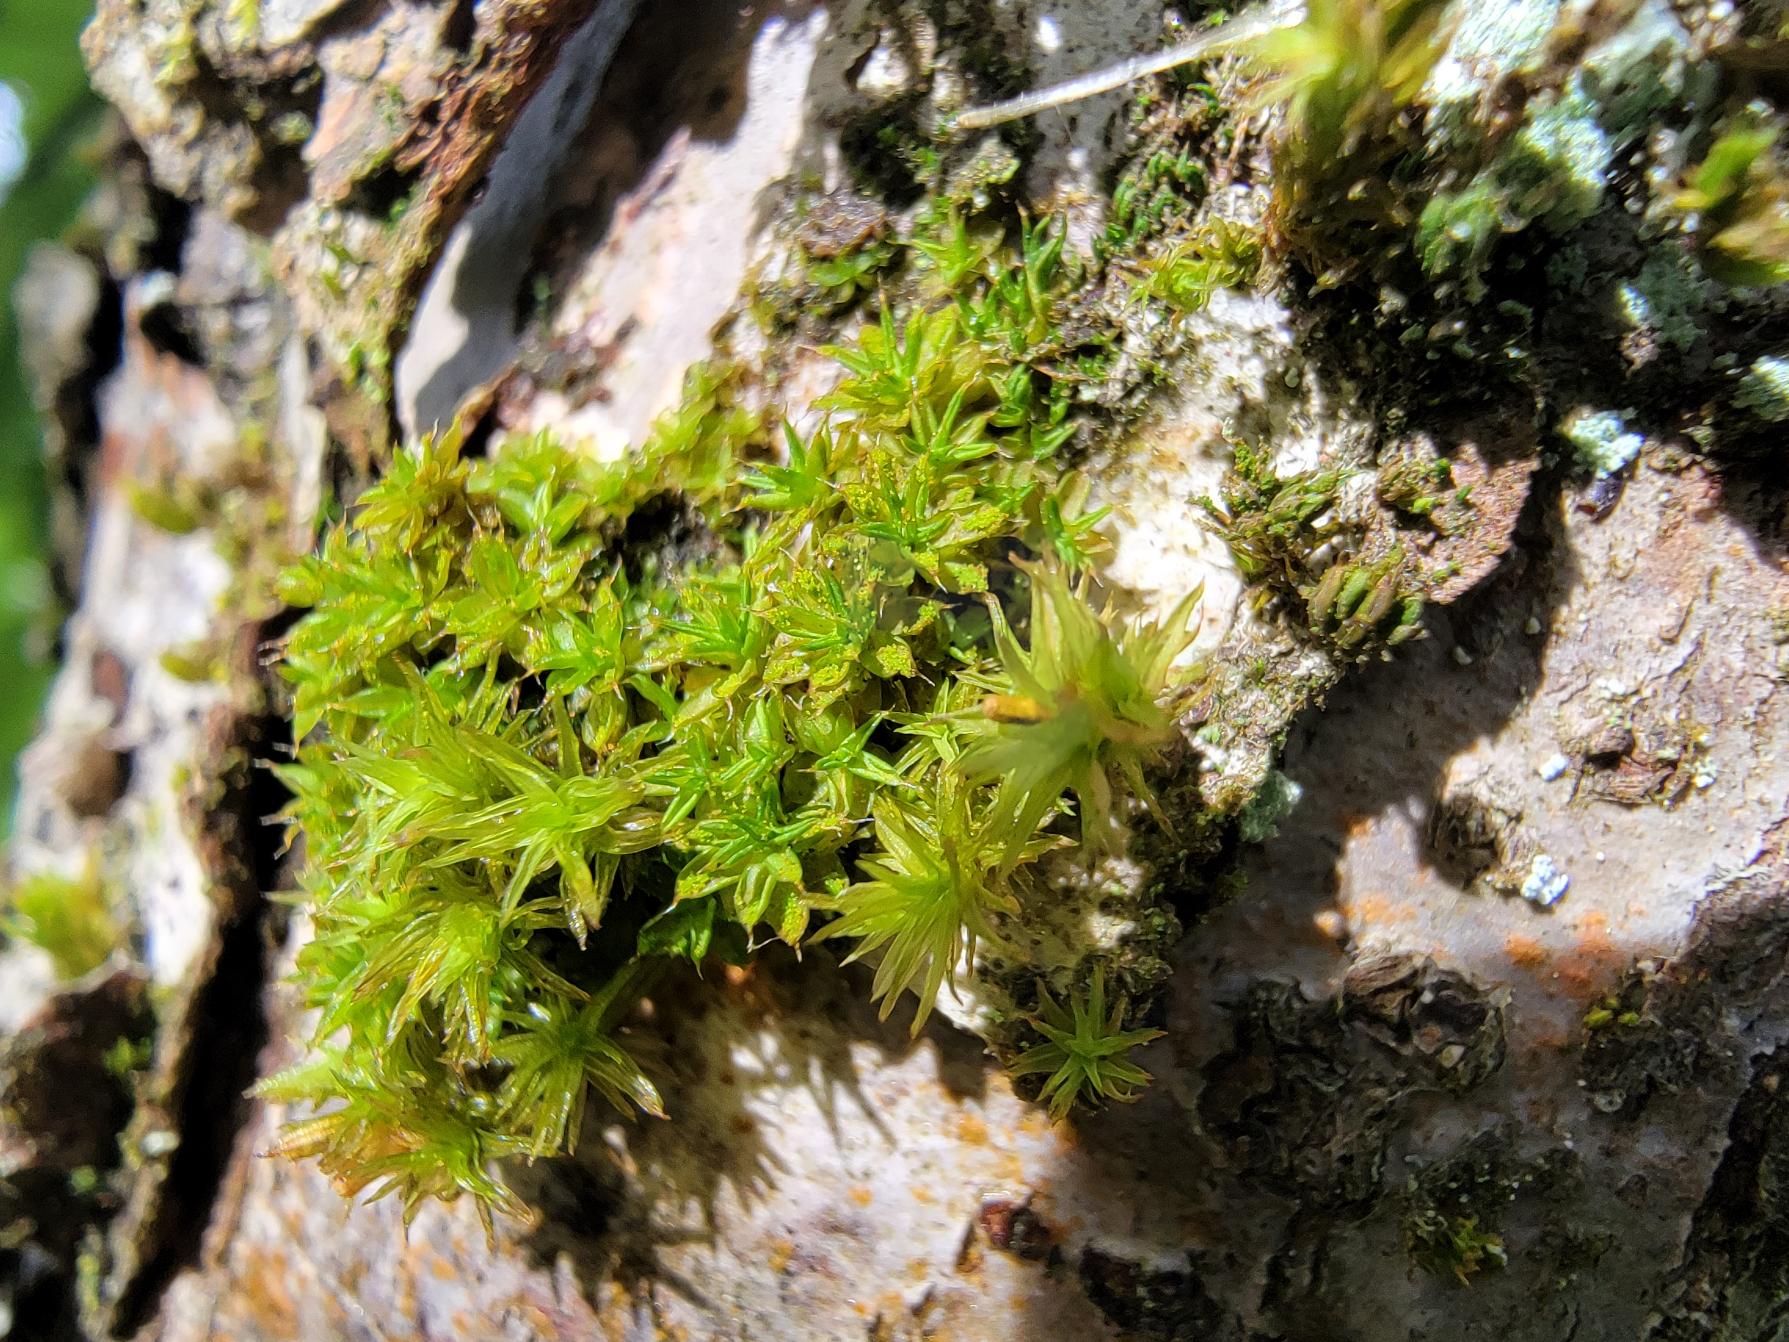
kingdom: Plantae
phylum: Bryophyta
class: Bryopsida
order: Pottiales
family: Pottiaceae
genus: Syntrichia
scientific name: Syntrichia papillosa
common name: Bark-hårstjerne
